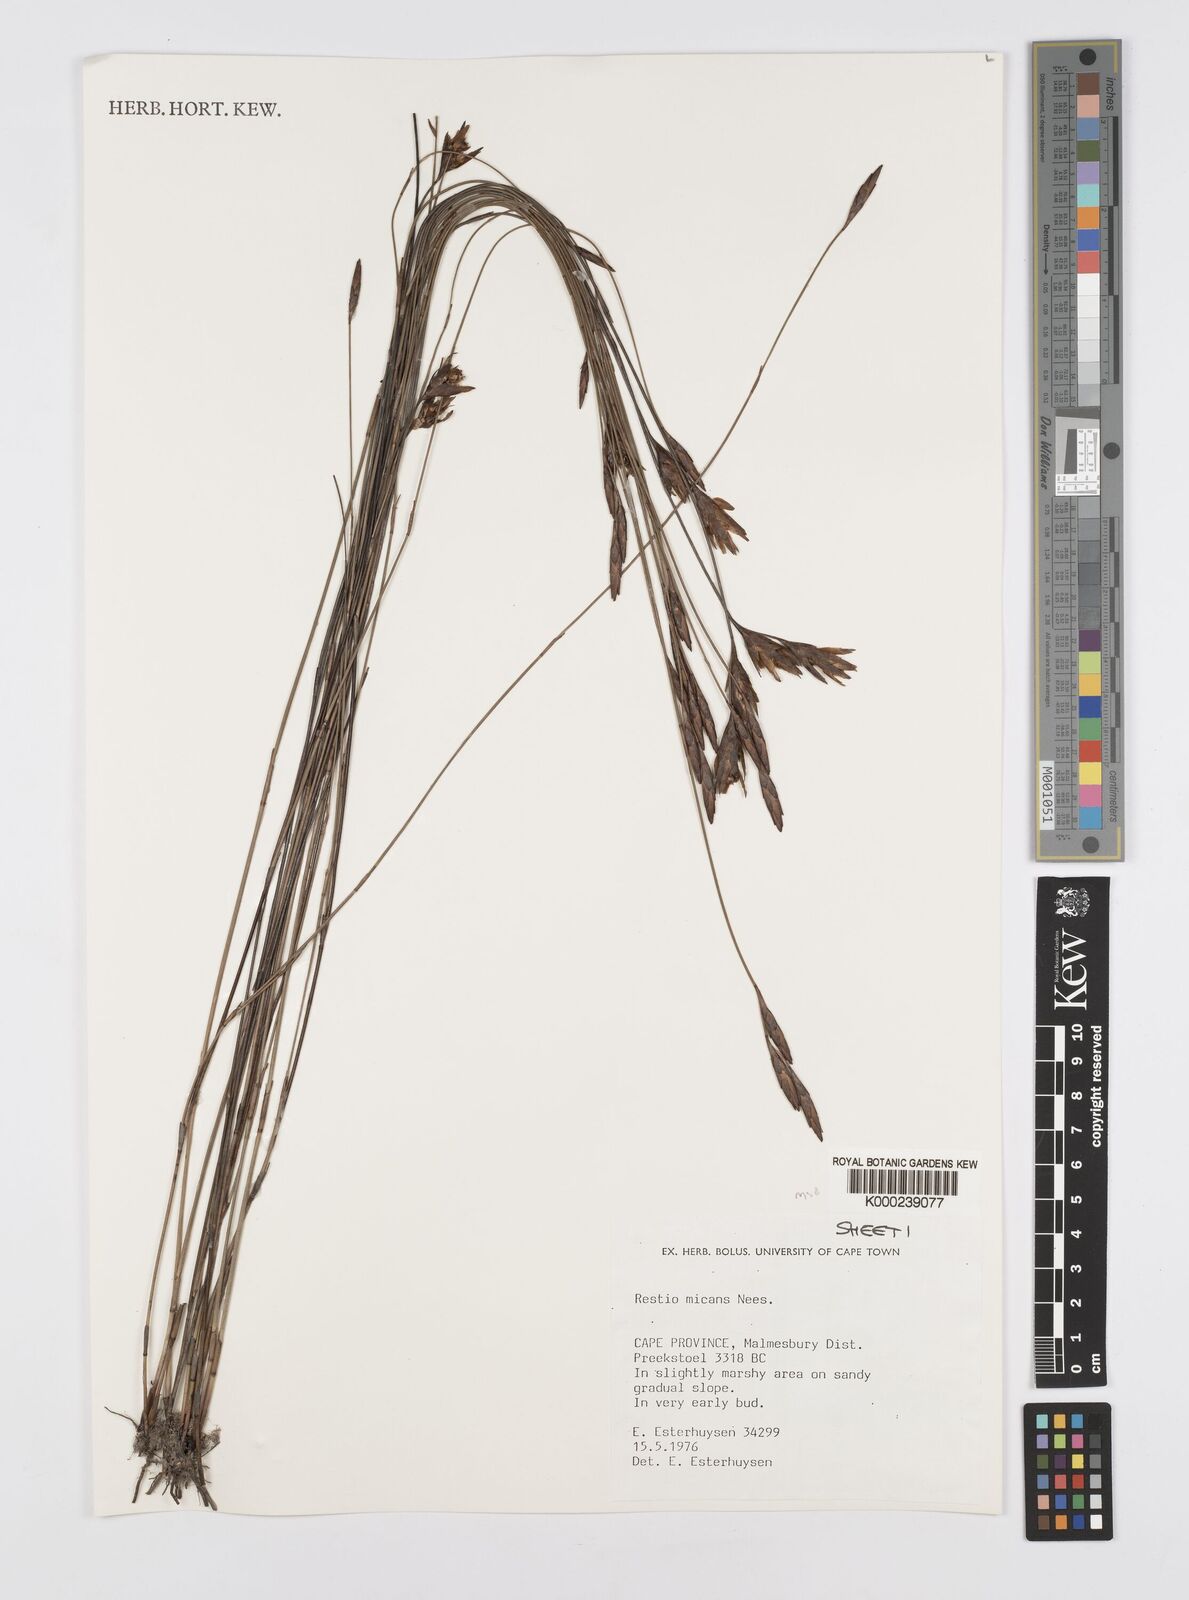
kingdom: Plantae
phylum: Tracheophyta
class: Liliopsida
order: Poales
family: Restionaceae
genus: Restio
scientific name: Restio micans
